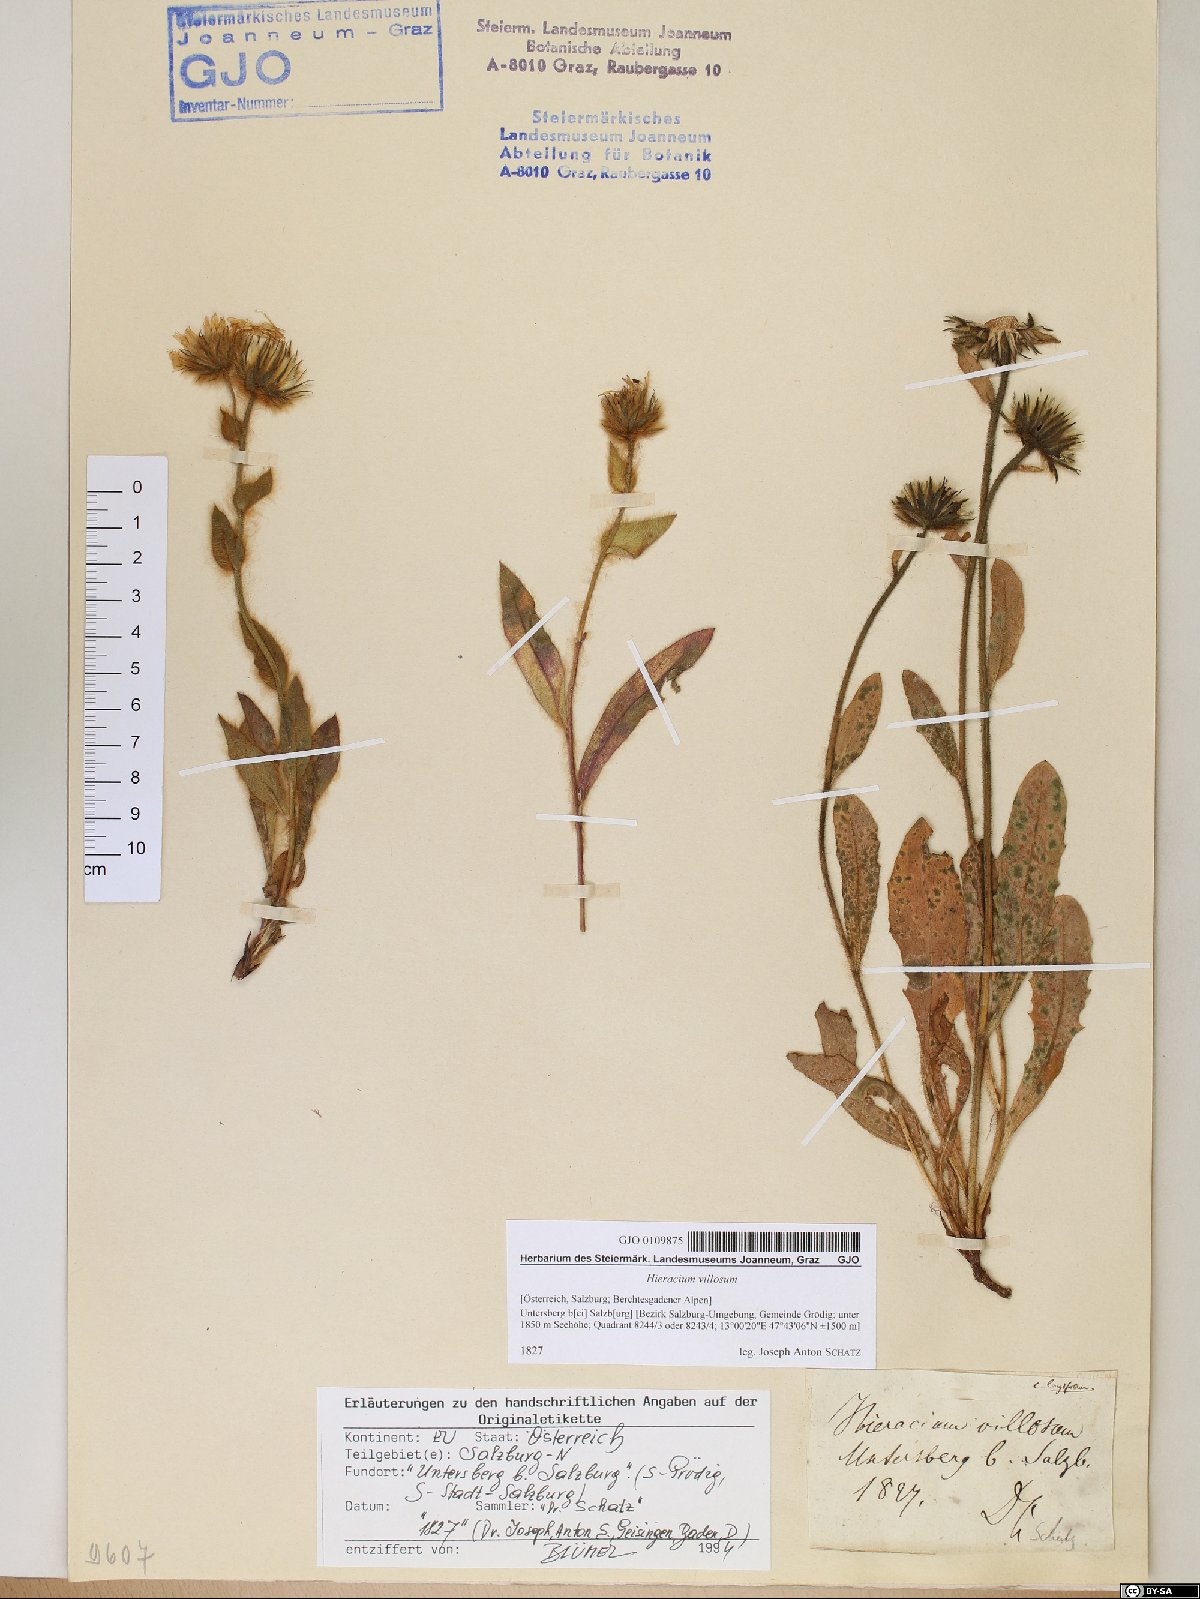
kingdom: Plantae
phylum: Tracheophyta
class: Magnoliopsida
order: Asterales
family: Asteraceae
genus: Hieracium
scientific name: Hieracium villosum
